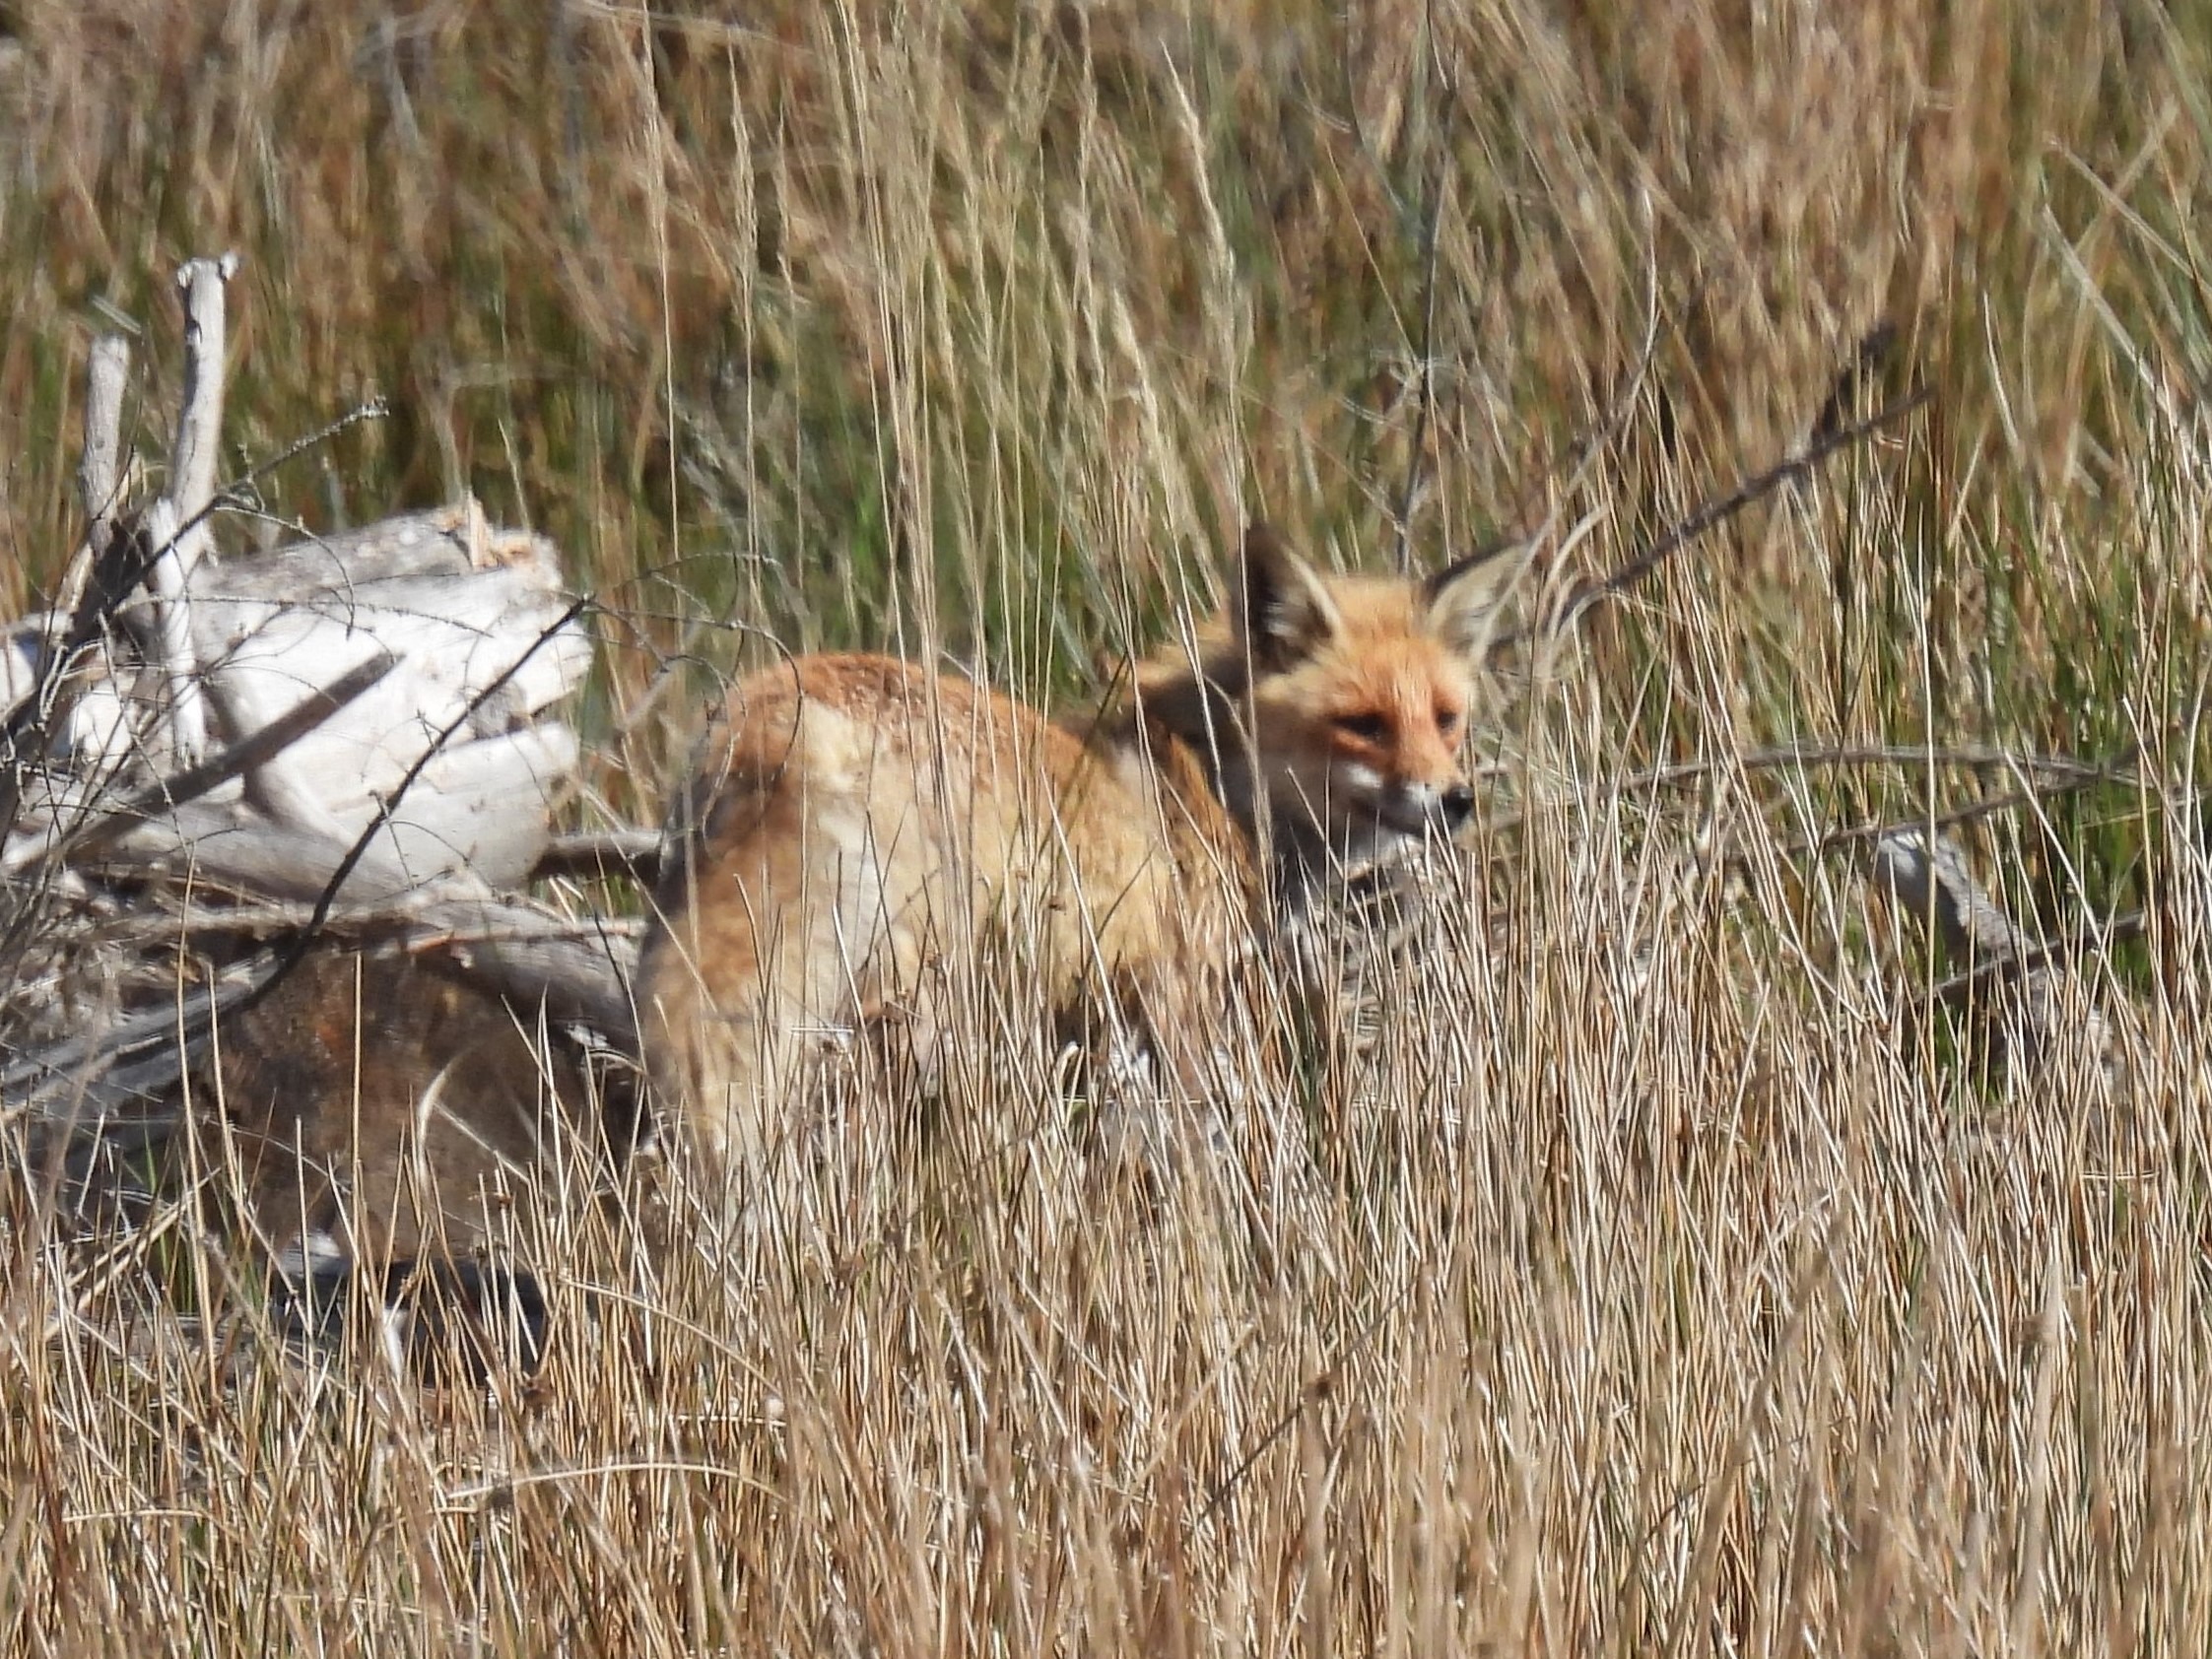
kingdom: Animalia
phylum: Chordata
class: Mammalia
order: Carnivora
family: Canidae
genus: Vulpes
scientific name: Vulpes vulpes
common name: Ræv
